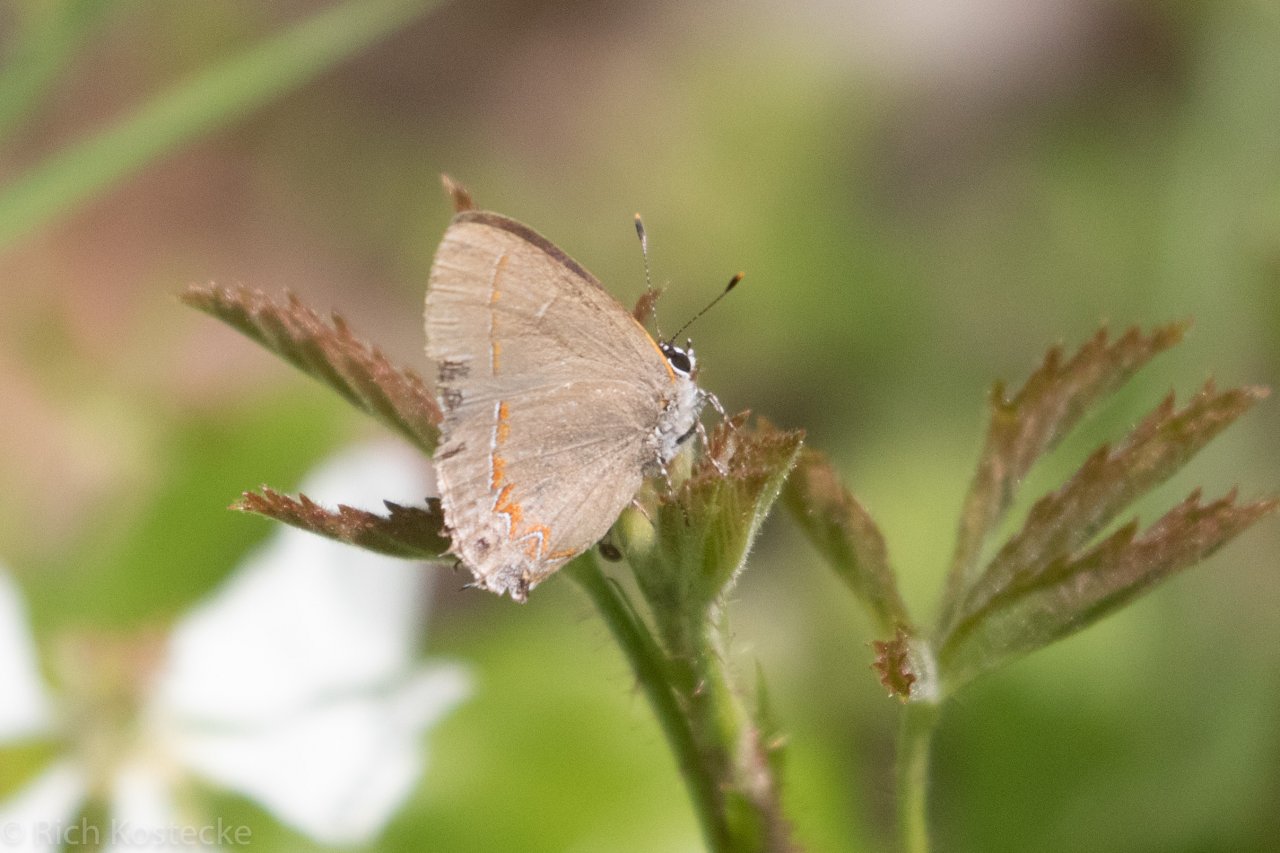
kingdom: Animalia
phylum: Arthropoda
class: Insecta
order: Lepidoptera
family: Lycaenidae
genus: Calycopis
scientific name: Calycopis isobeon
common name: Dusky-blue Groundstreak
